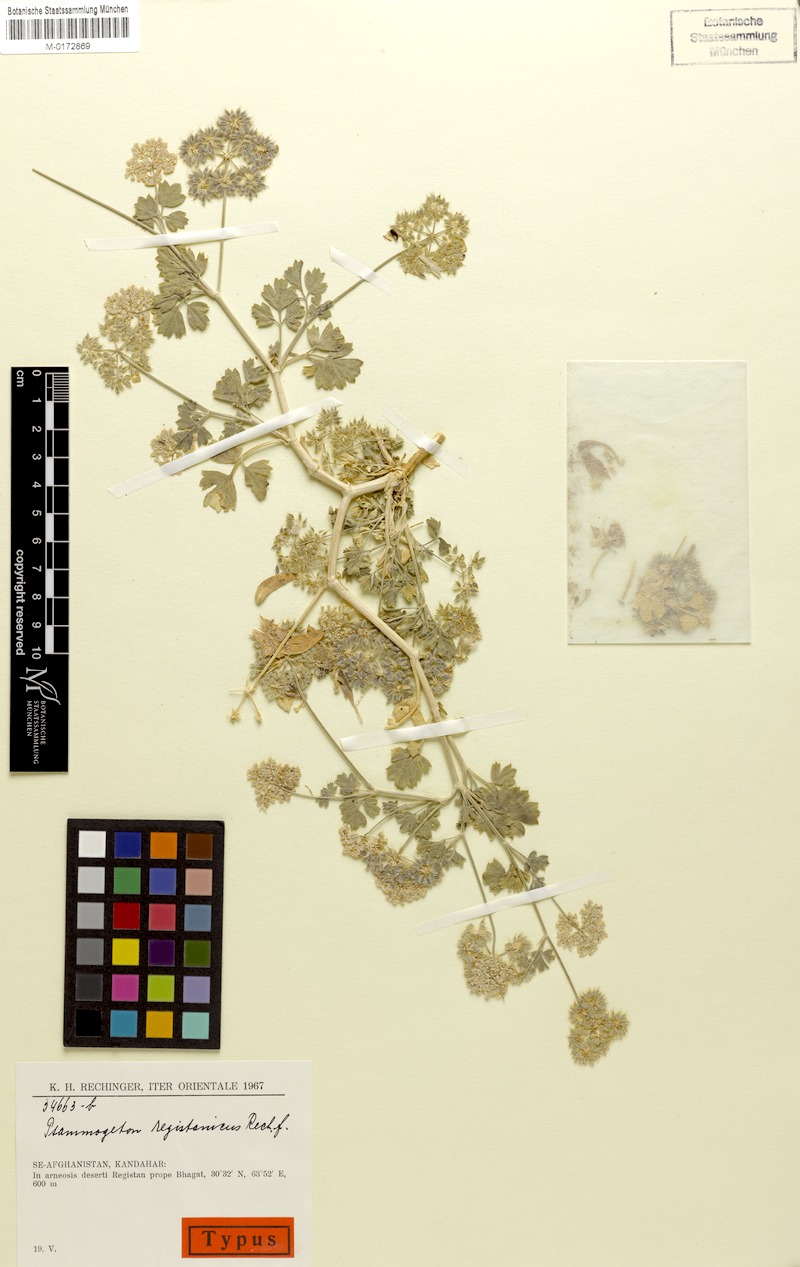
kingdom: Plantae
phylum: Tracheophyta
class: Magnoliopsida
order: Apiales
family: Apiaceae
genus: Psammogeton
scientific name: Psammogeton registanicus
